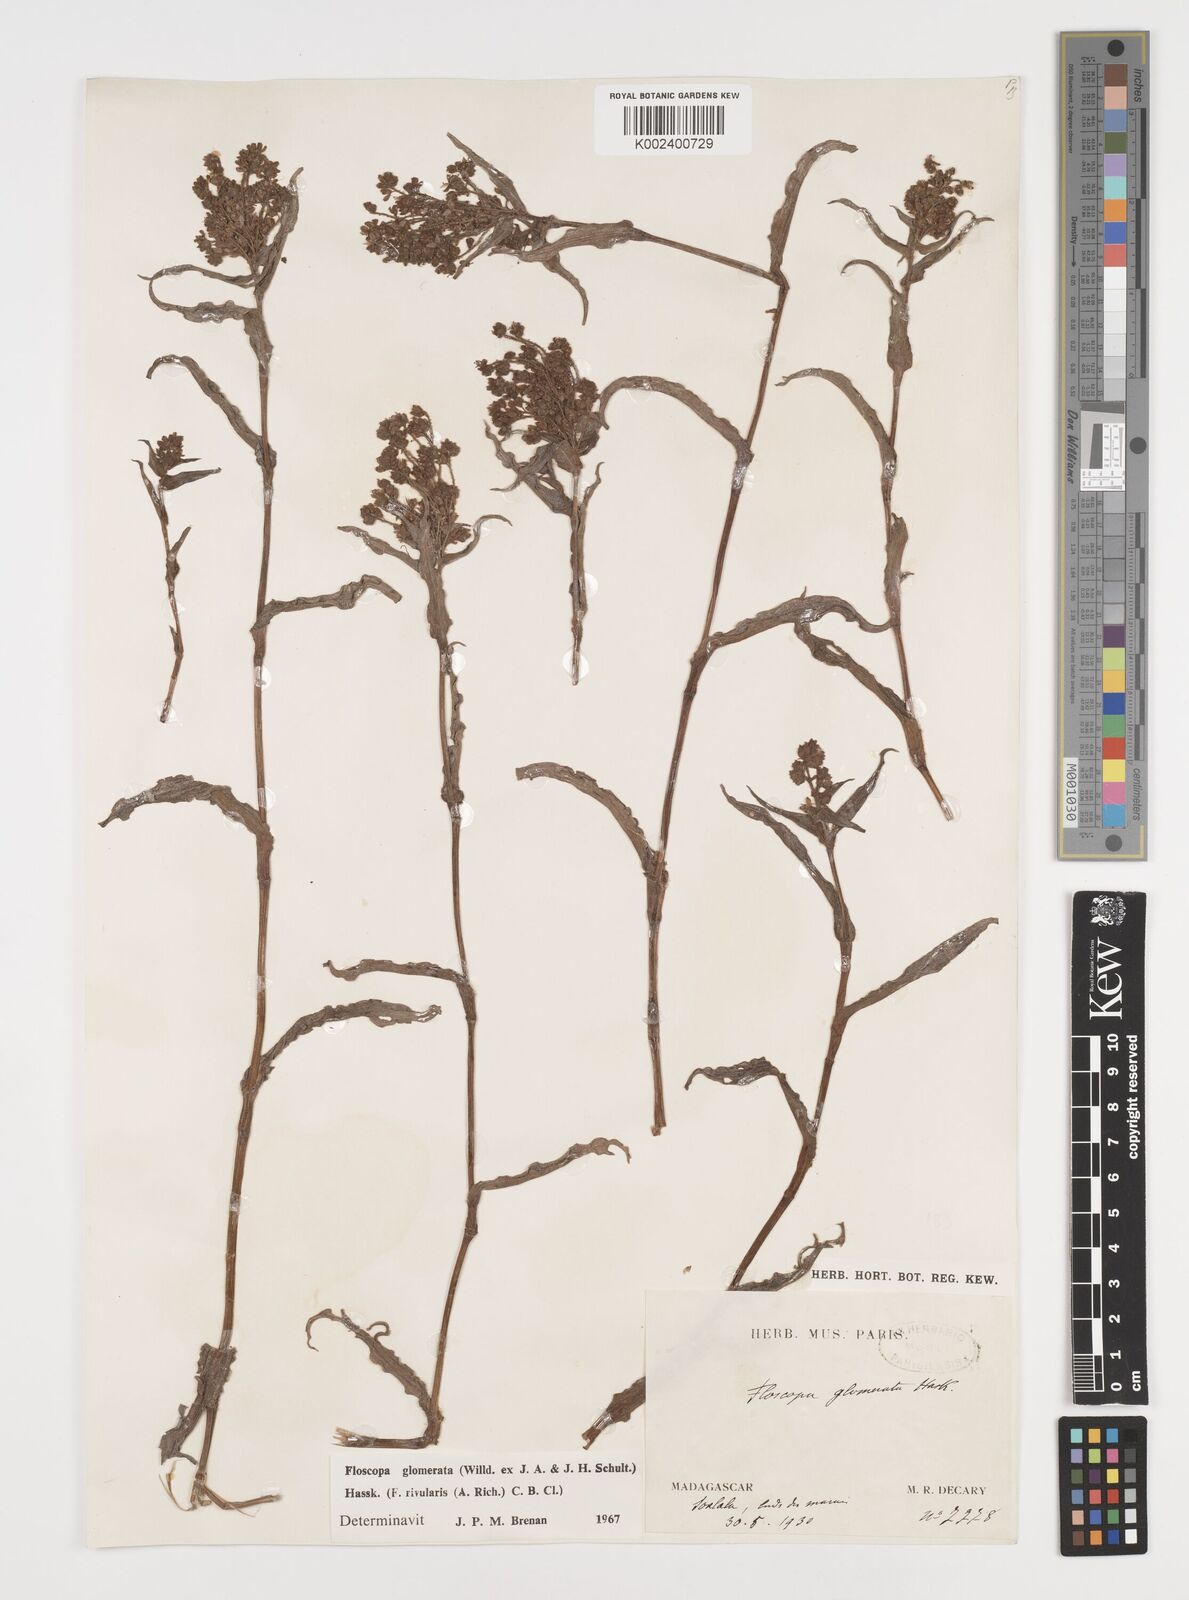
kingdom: Plantae
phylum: Tracheophyta
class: Liliopsida
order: Commelinales
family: Commelinaceae
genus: Floscopa
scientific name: Floscopa glomerata
